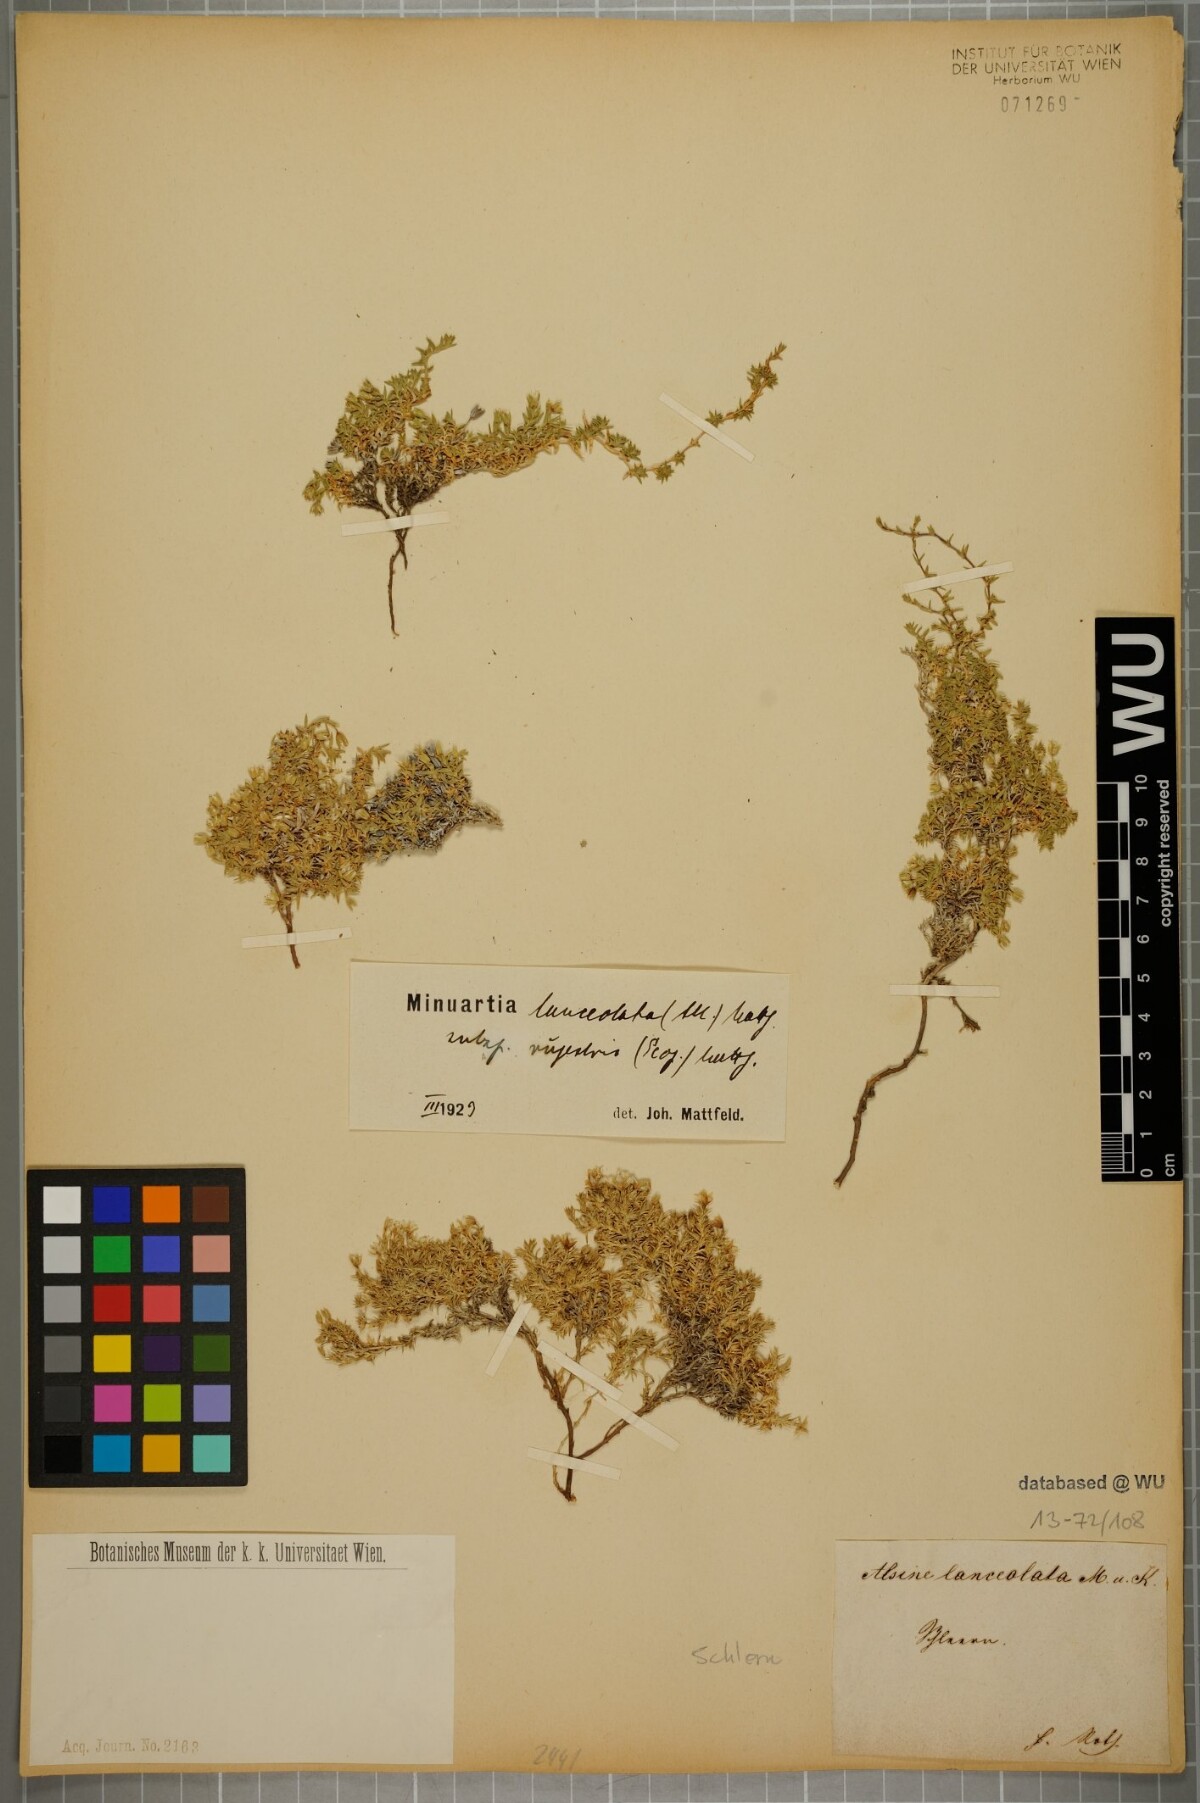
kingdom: Plantae
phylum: Tracheophyta
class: Magnoliopsida
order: Caryophyllales
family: Caryophyllaceae
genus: Facchinia
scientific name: Facchinia rupestris
